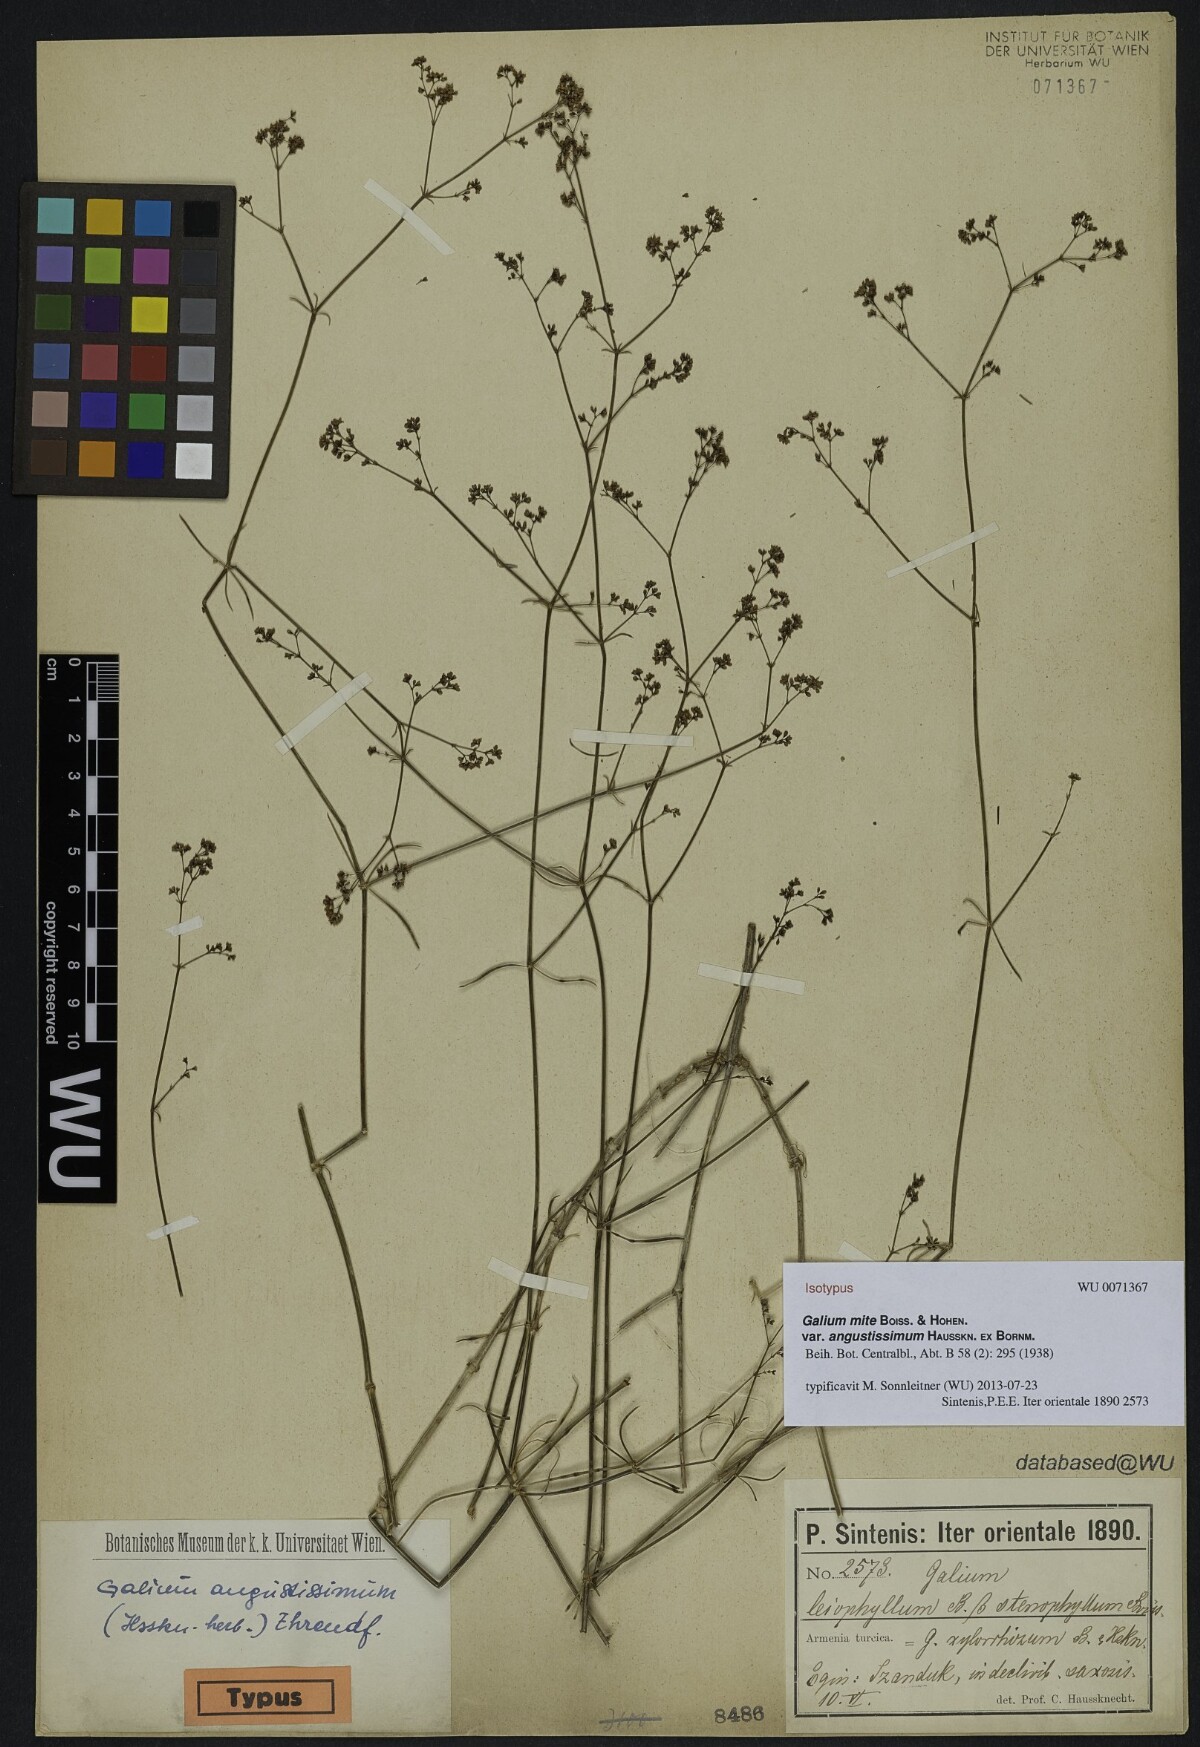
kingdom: Plantae
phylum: Tracheophyta
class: Magnoliopsida
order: Gentianales
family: Rubiaceae
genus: Galium
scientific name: Galium angustissimum
